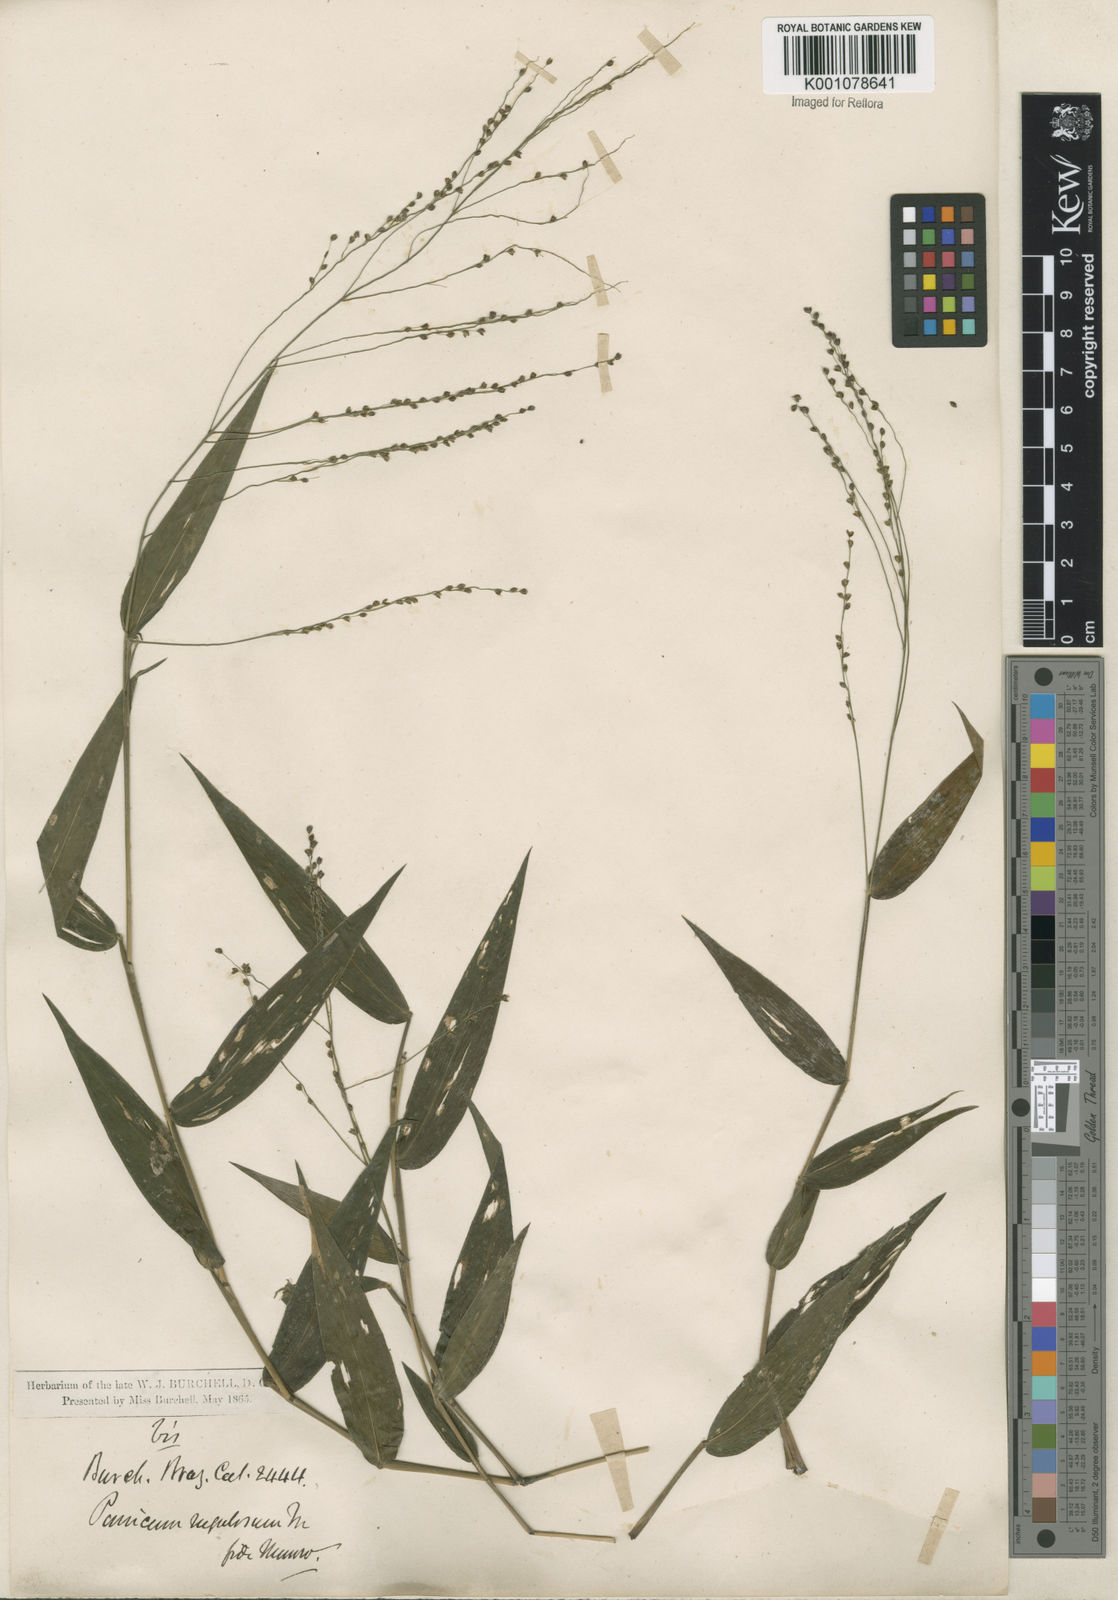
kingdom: Plantae
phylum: Tracheophyta
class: Liliopsida
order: Poales
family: Poaceae
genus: Panicum
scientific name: Panicum millegrana
